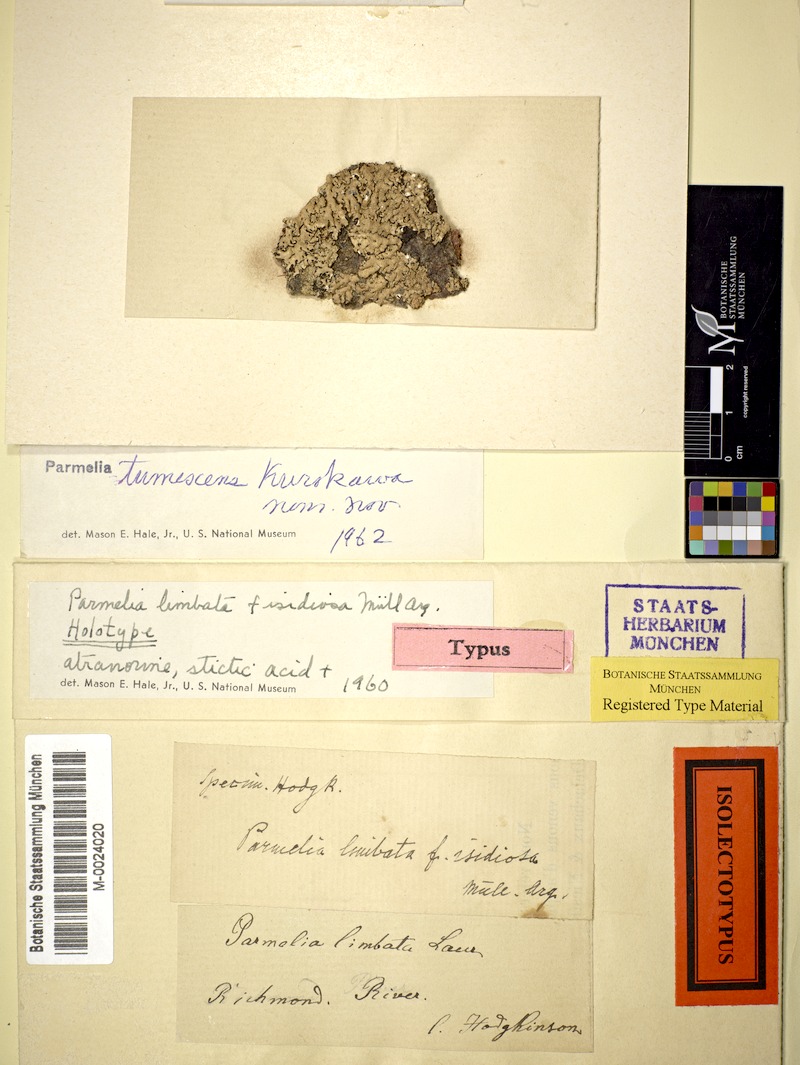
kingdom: Fungi
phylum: Ascomycota
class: Lecanoromycetes
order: Lecanorales
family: Parmeliaceae
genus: Relicina
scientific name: Relicina sydneyensis
